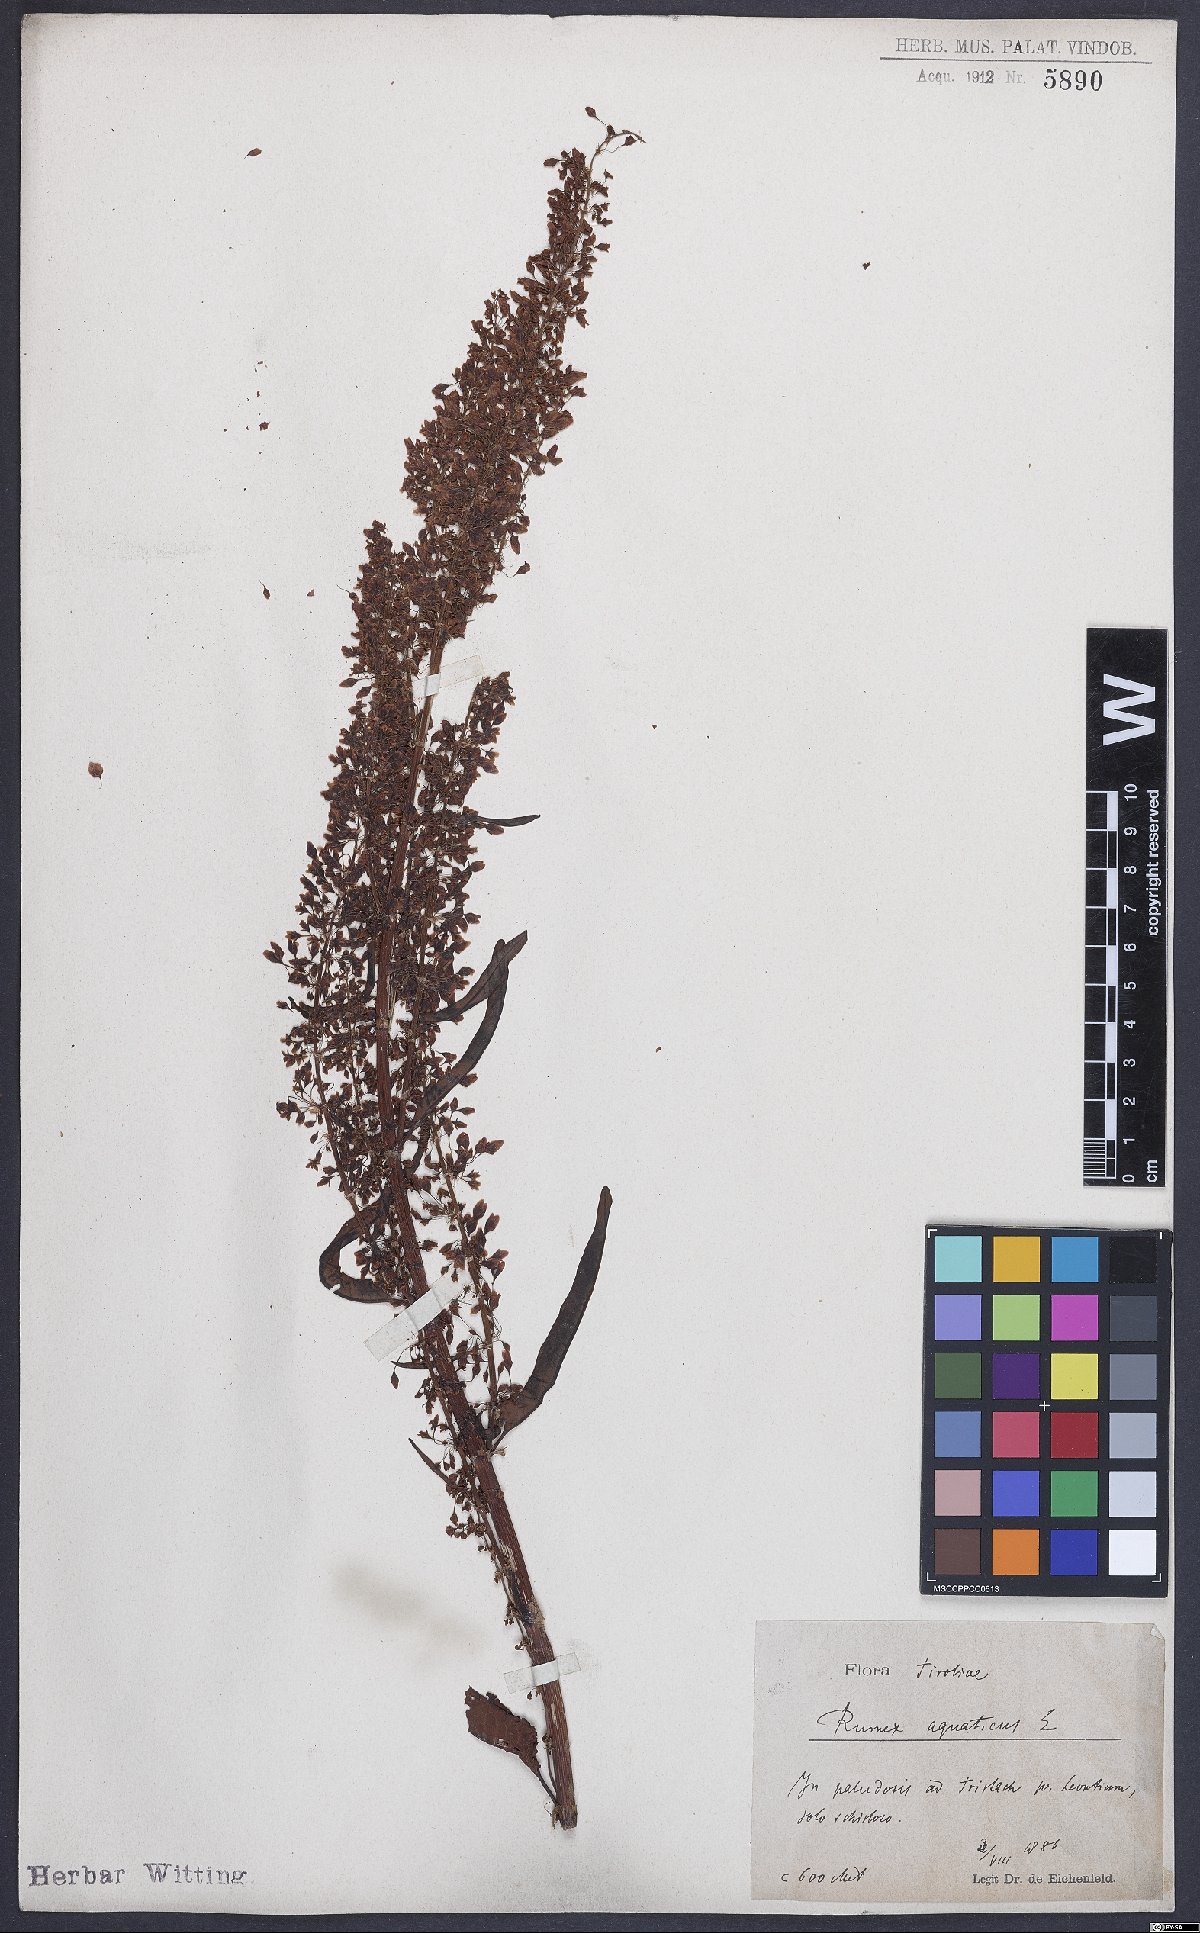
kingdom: Plantae
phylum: Tracheophyta
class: Magnoliopsida
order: Caryophyllales
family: Polygonaceae
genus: Rumex
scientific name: Rumex aquaticus
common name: Scottish dock
